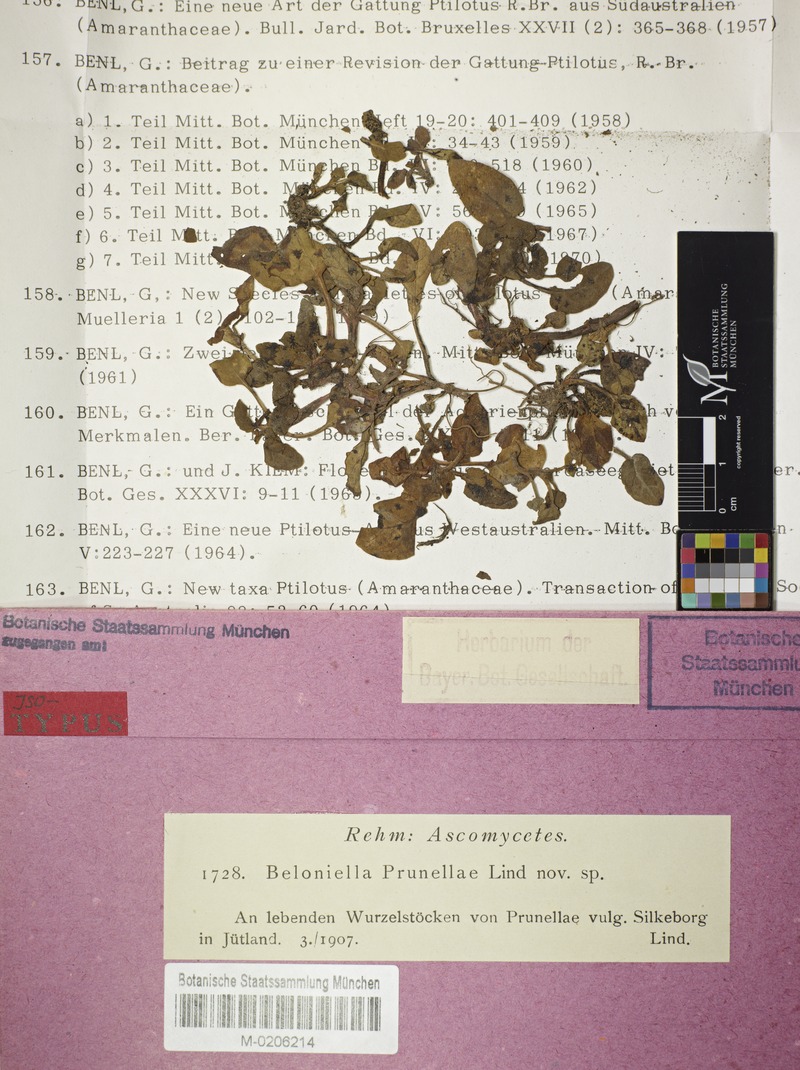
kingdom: Fungi
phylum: Ascomycota
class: Leotiomycetes
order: Helotiales
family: Drepanopezizaceae
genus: Leptotrochila
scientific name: Leptotrochila prunellae
